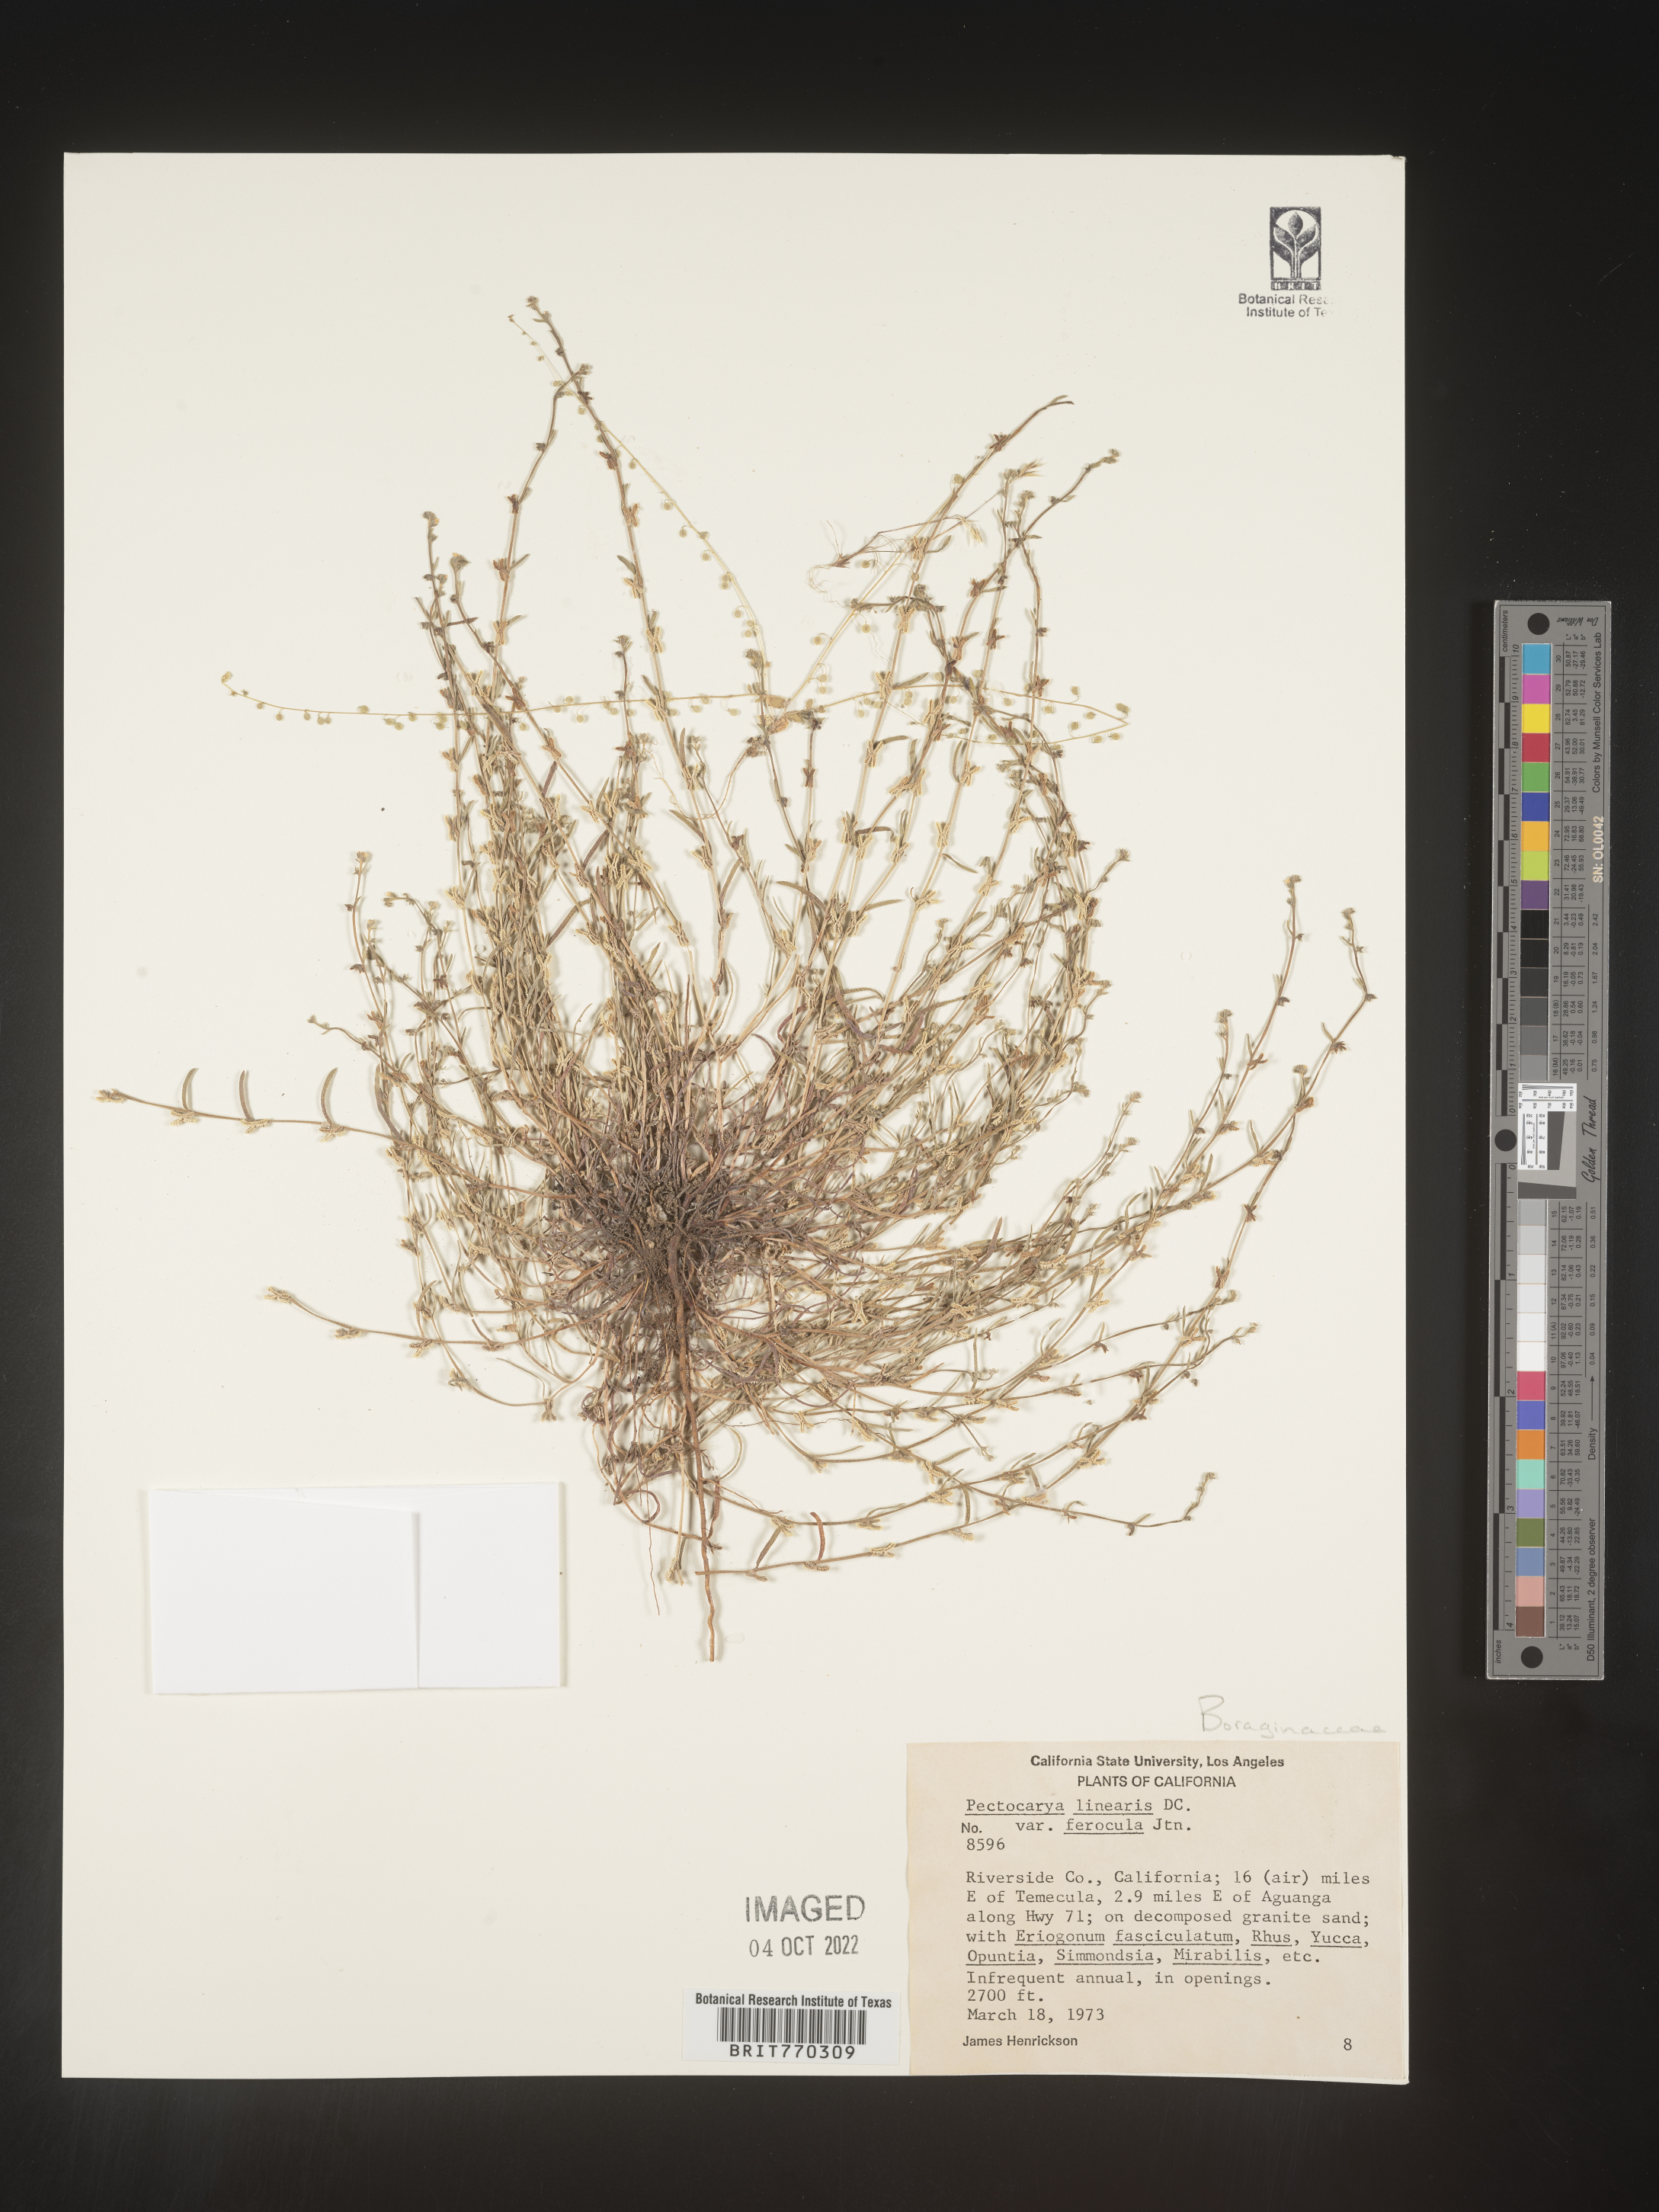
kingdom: Plantae
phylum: Tracheophyta
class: Magnoliopsida
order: Boraginales
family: Boraginaceae
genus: Pectocarya
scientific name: Pectocarya
